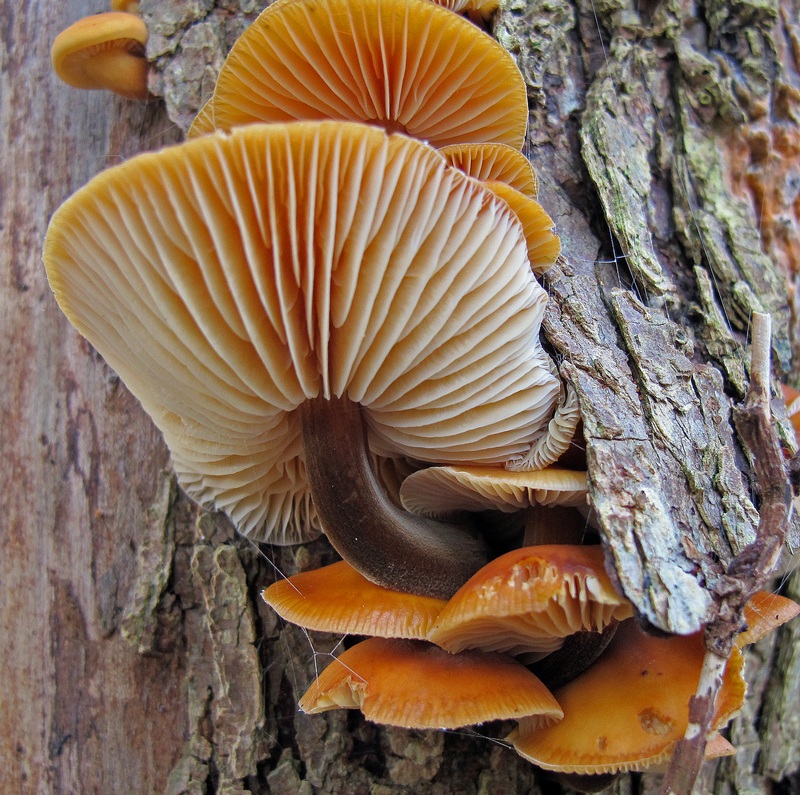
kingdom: Fungi
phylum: Basidiomycota
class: Agaricomycetes
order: Agaricales
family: Physalacriaceae
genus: Flammulina
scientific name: Flammulina elastica
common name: pile-fløjlsfod
